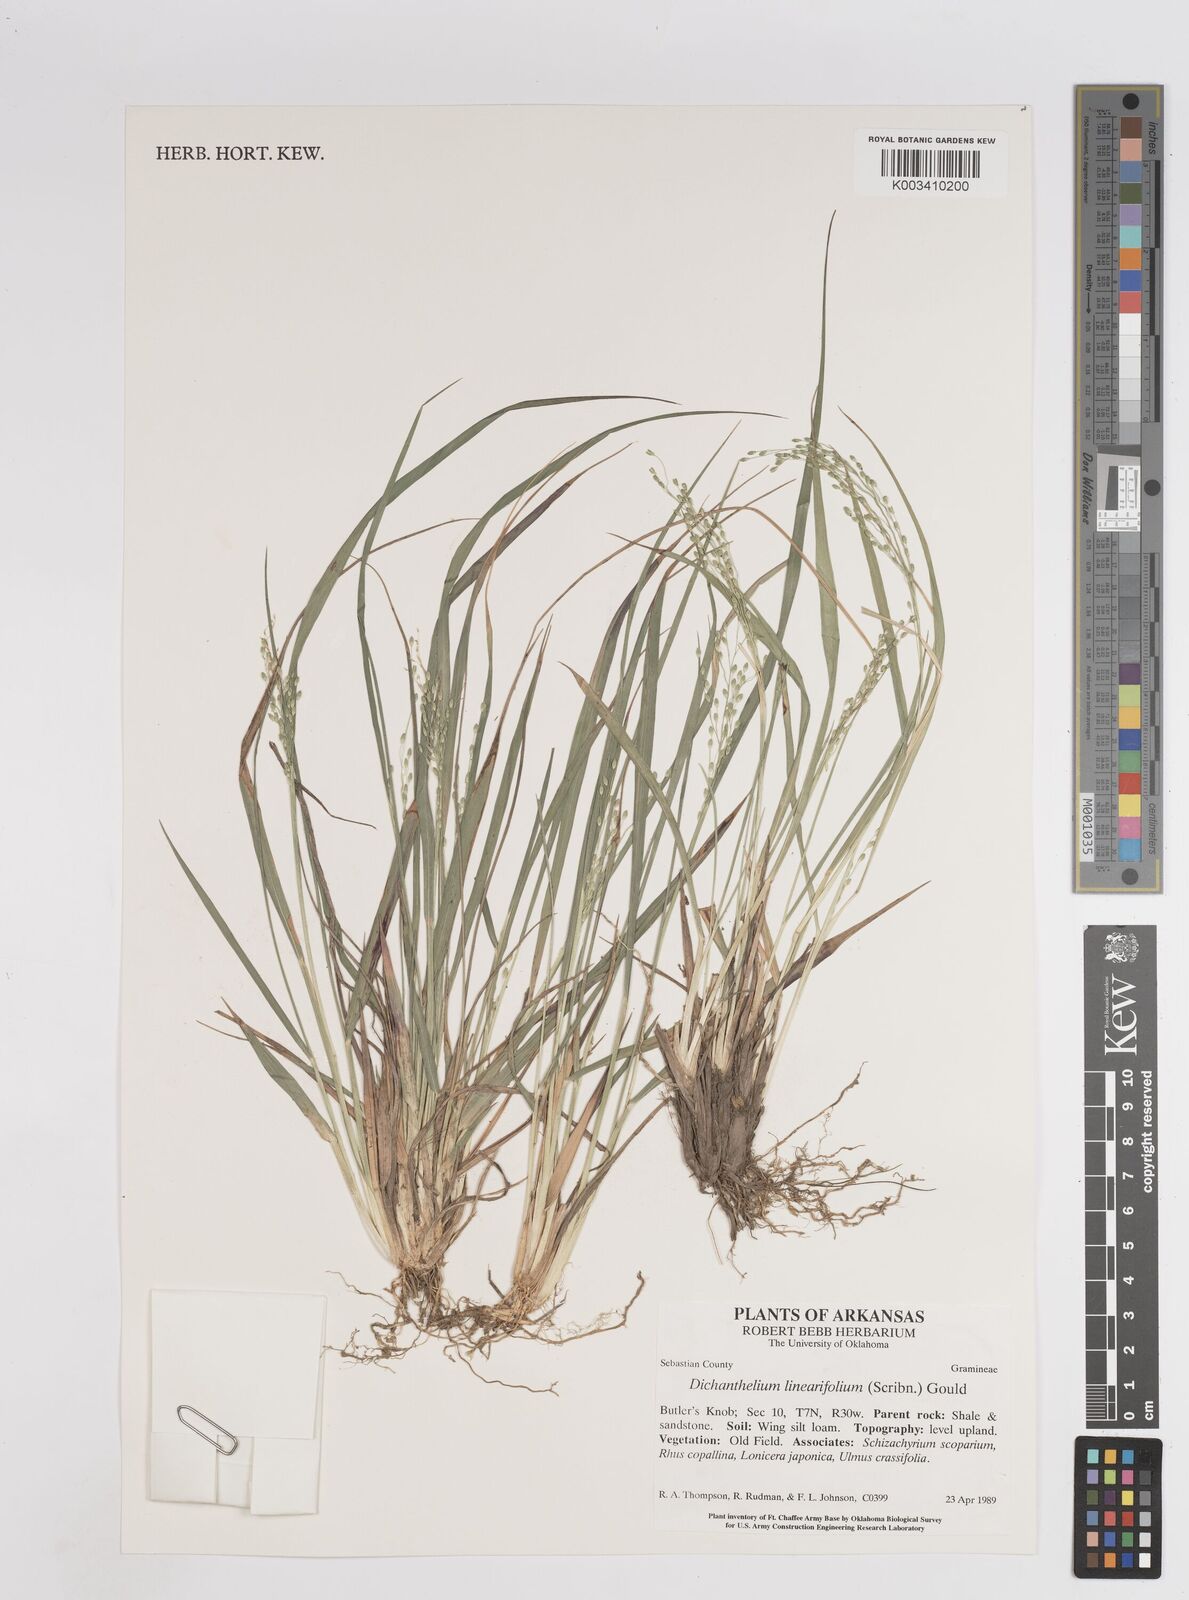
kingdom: Plantae
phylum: Tracheophyta
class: Liliopsida
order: Poales
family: Poaceae
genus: Dichanthelium
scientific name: Dichanthelium linearifolium
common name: Linear-leaved panicgrass
